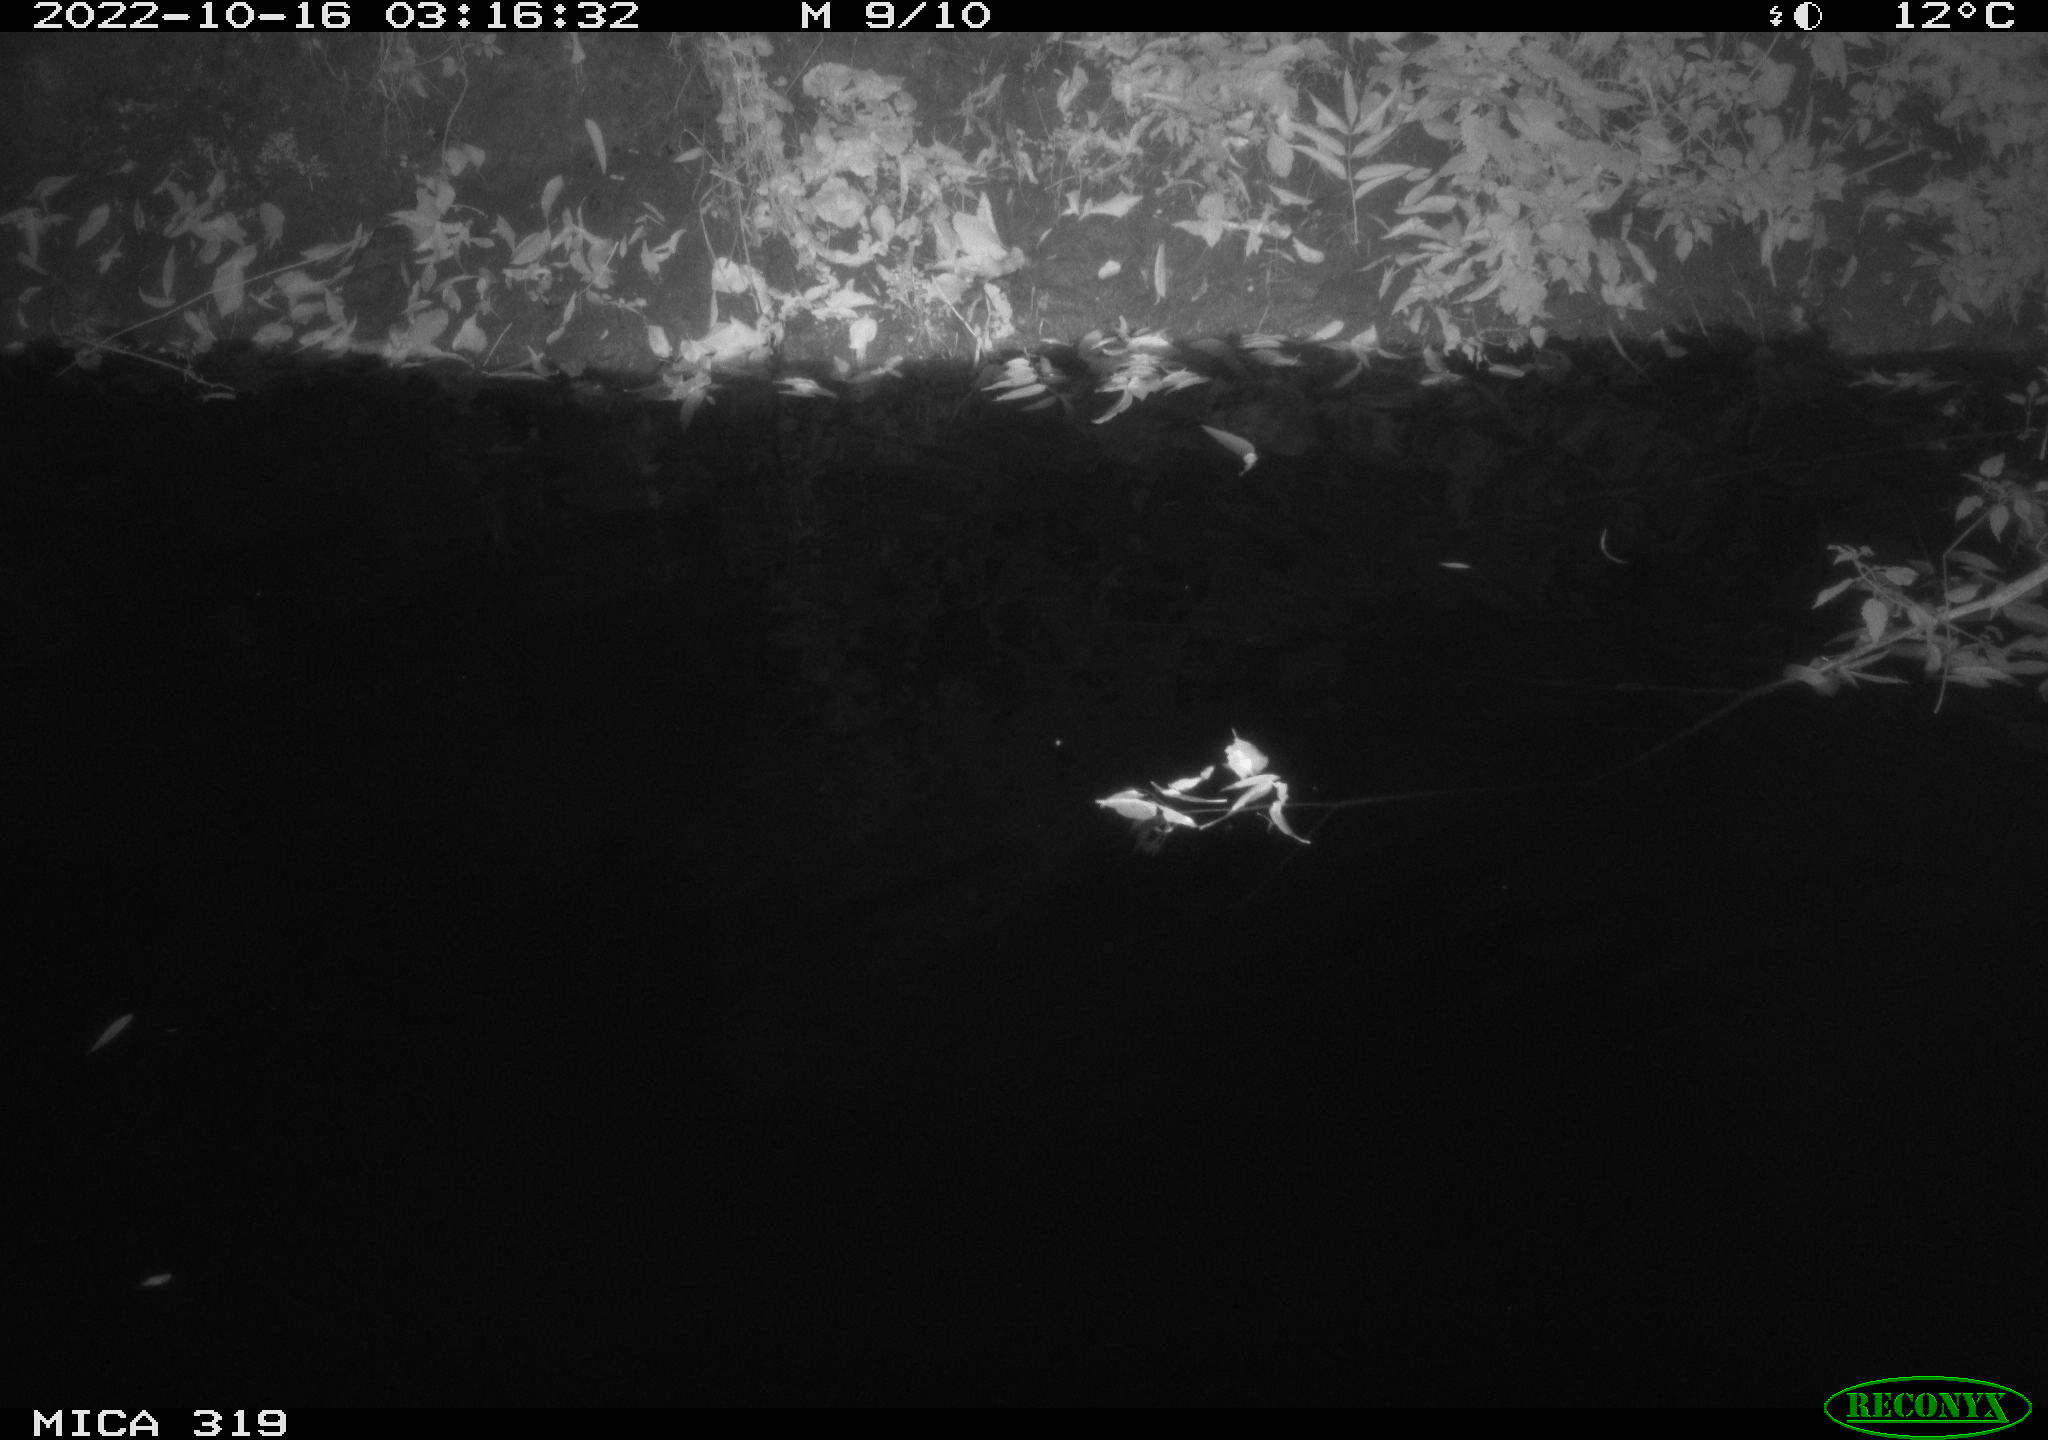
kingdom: Animalia
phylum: Chordata
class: Aves
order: Anseriformes
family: Anatidae
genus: Anas
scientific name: Anas
